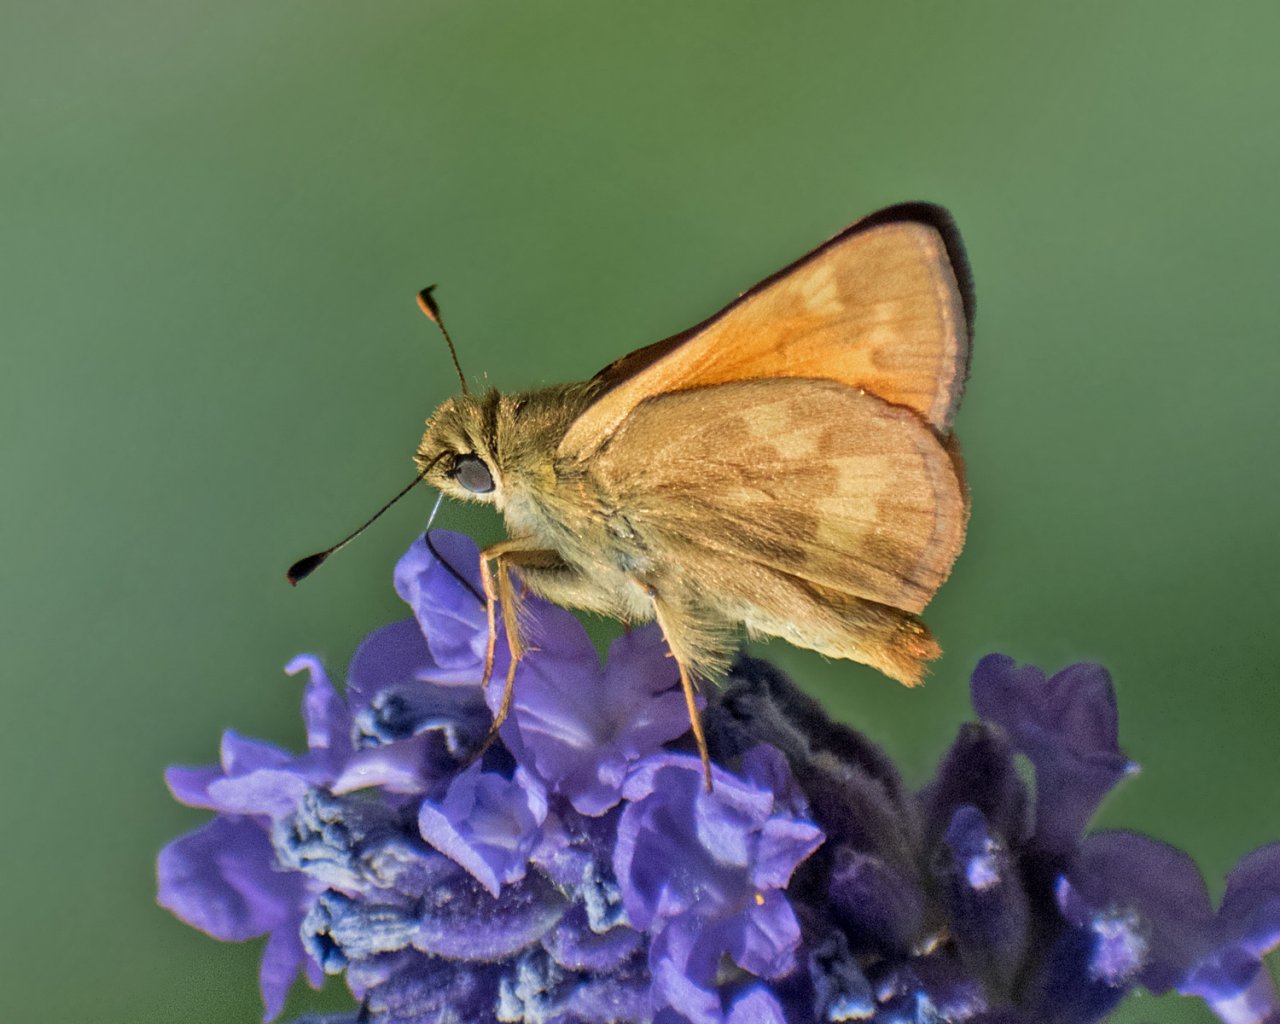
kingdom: Animalia
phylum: Arthropoda
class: Insecta
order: Lepidoptera
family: Hesperiidae
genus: Ochlodes
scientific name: Ochlodes sylvanoides
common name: Woodland Skipper
